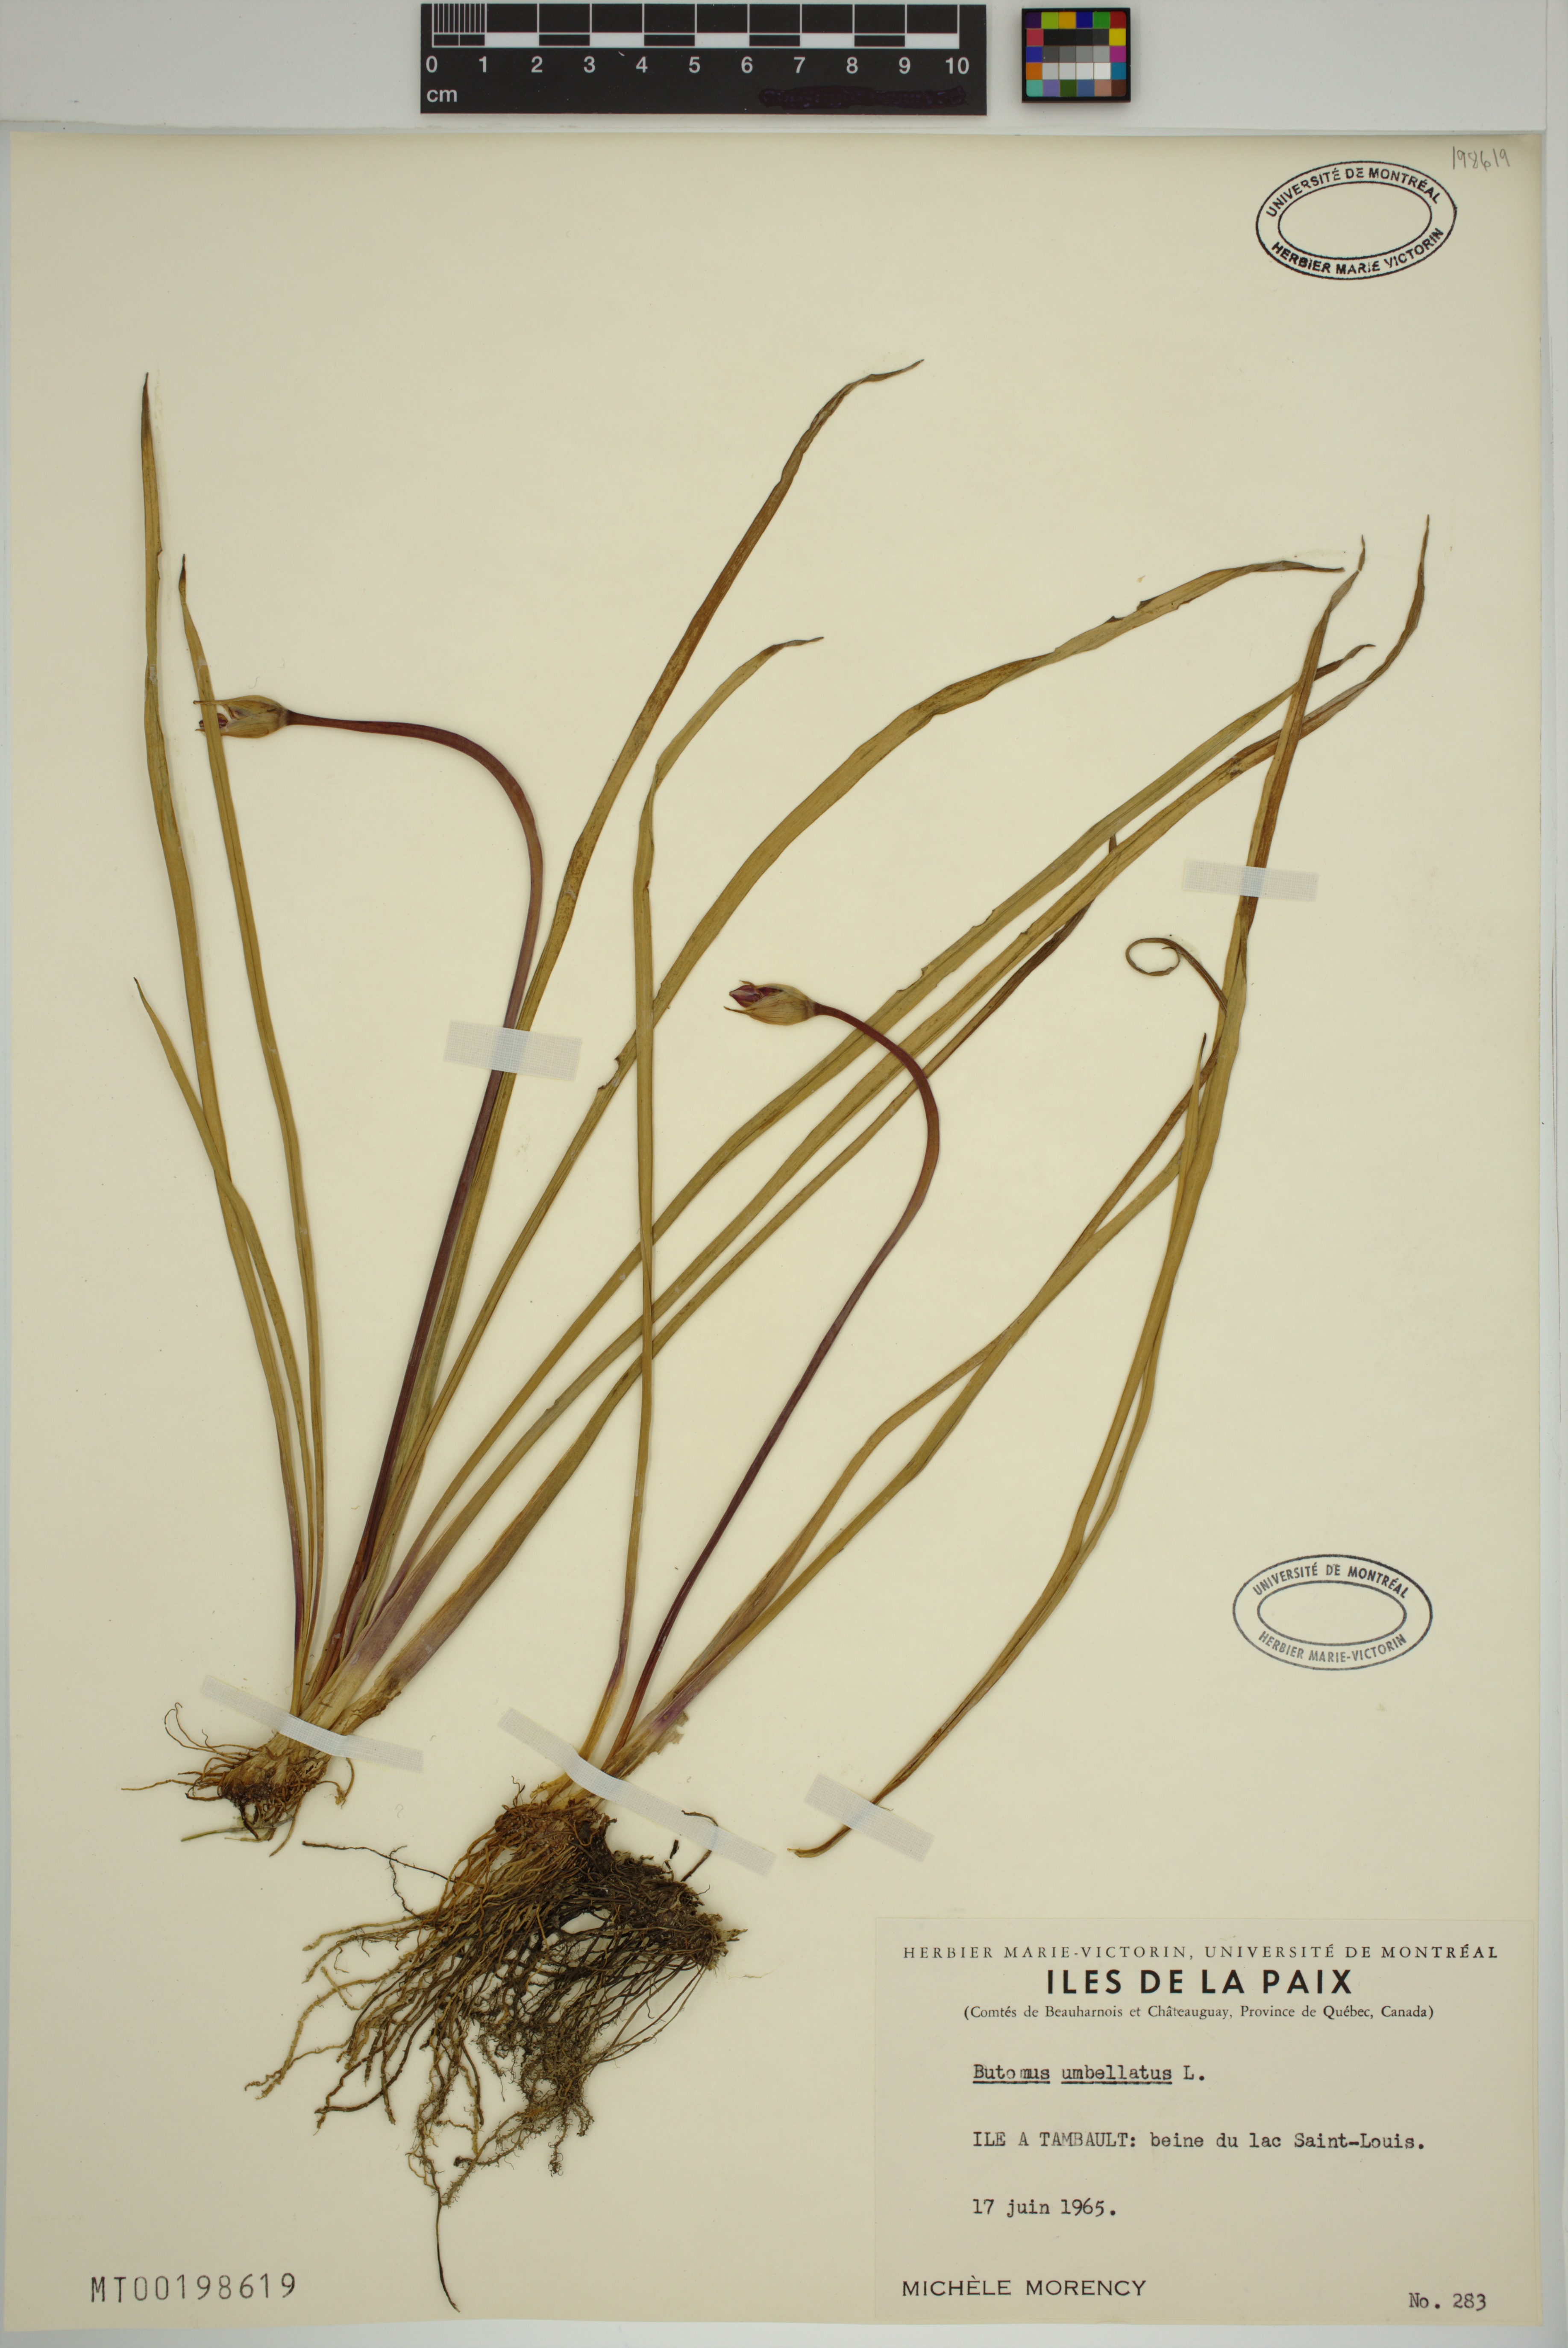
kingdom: Plantae
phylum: Tracheophyta
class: Liliopsida
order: Alismatales
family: Butomaceae
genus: Butomus
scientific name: Butomus umbellatus
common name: Flowering-rush
